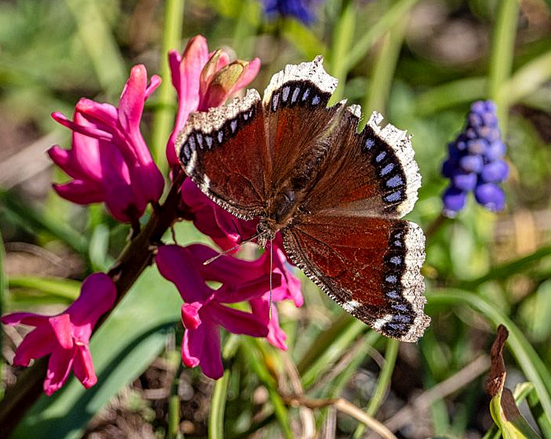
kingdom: Animalia
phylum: Arthropoda
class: Insecta
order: Lepidoptera
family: Nymphalidae
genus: Nymphalis
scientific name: Nymphalis antiopa
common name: Mourning Cloak
